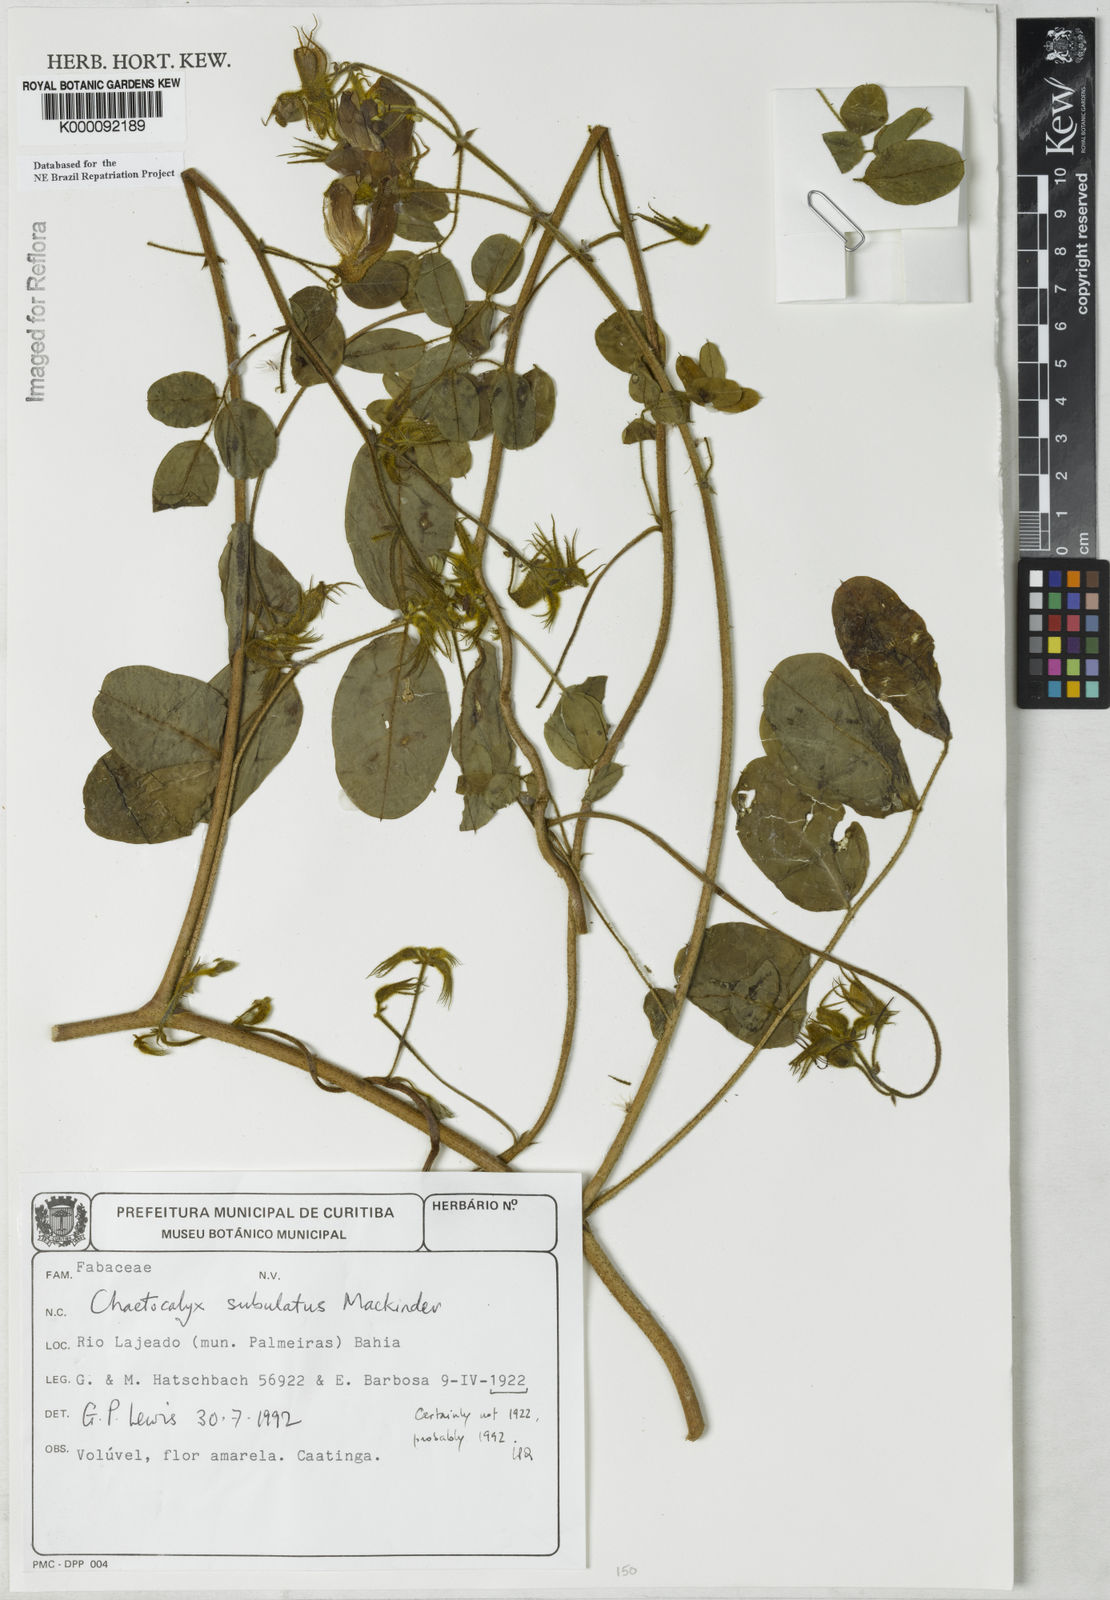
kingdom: Plantae
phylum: Tracheophyta
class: Magnoliopsida
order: Fabales
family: Fabaceae
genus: Nissolia
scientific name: Nissolia subulata
